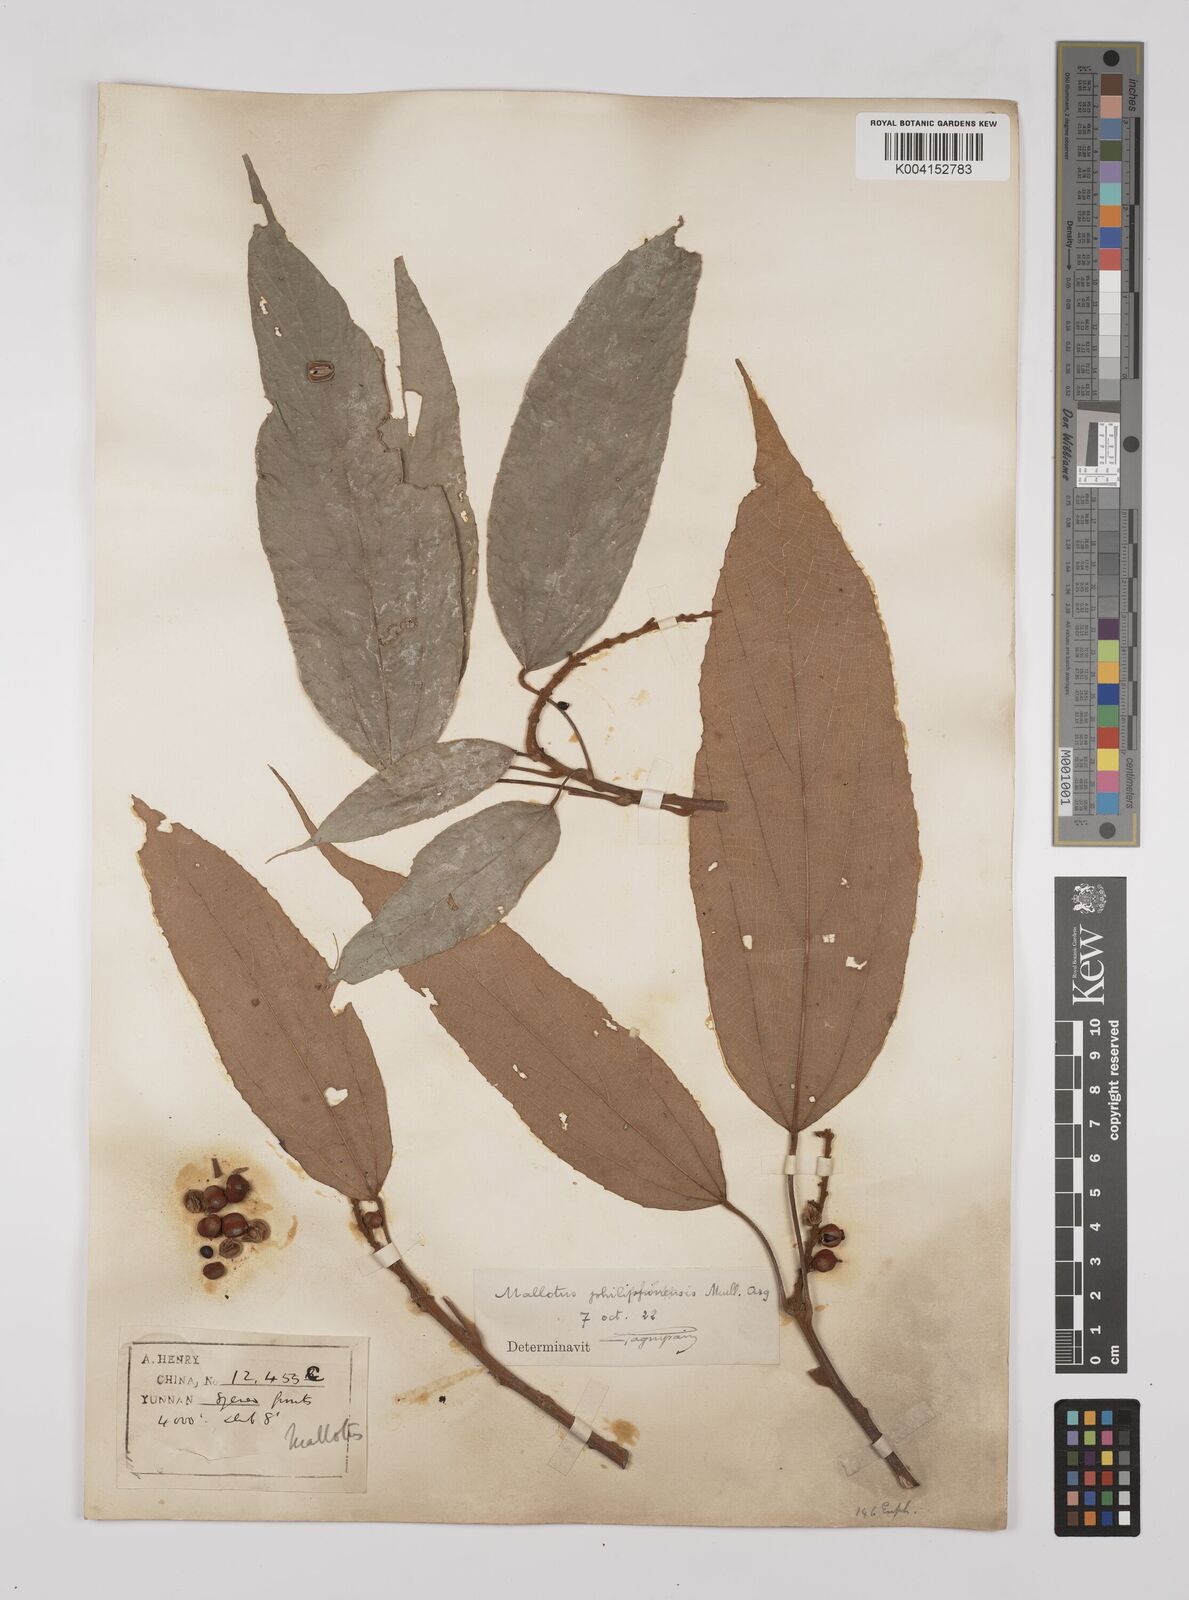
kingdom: Plantae
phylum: Tracheophyta
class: Magnoliopsida
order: Malpighiales
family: Euphorbiaceae
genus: Mallotus
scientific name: Mallotus philippensis
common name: Kamala tree
